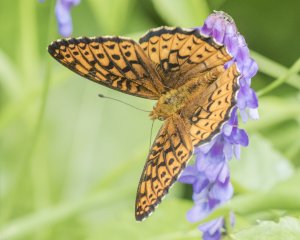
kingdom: Animalia
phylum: Arthropoda
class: Insecta
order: Lepidoptera
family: Nymphalidae
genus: Speyeria
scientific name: Speyeria atlantis
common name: Atlantis Fritillary
